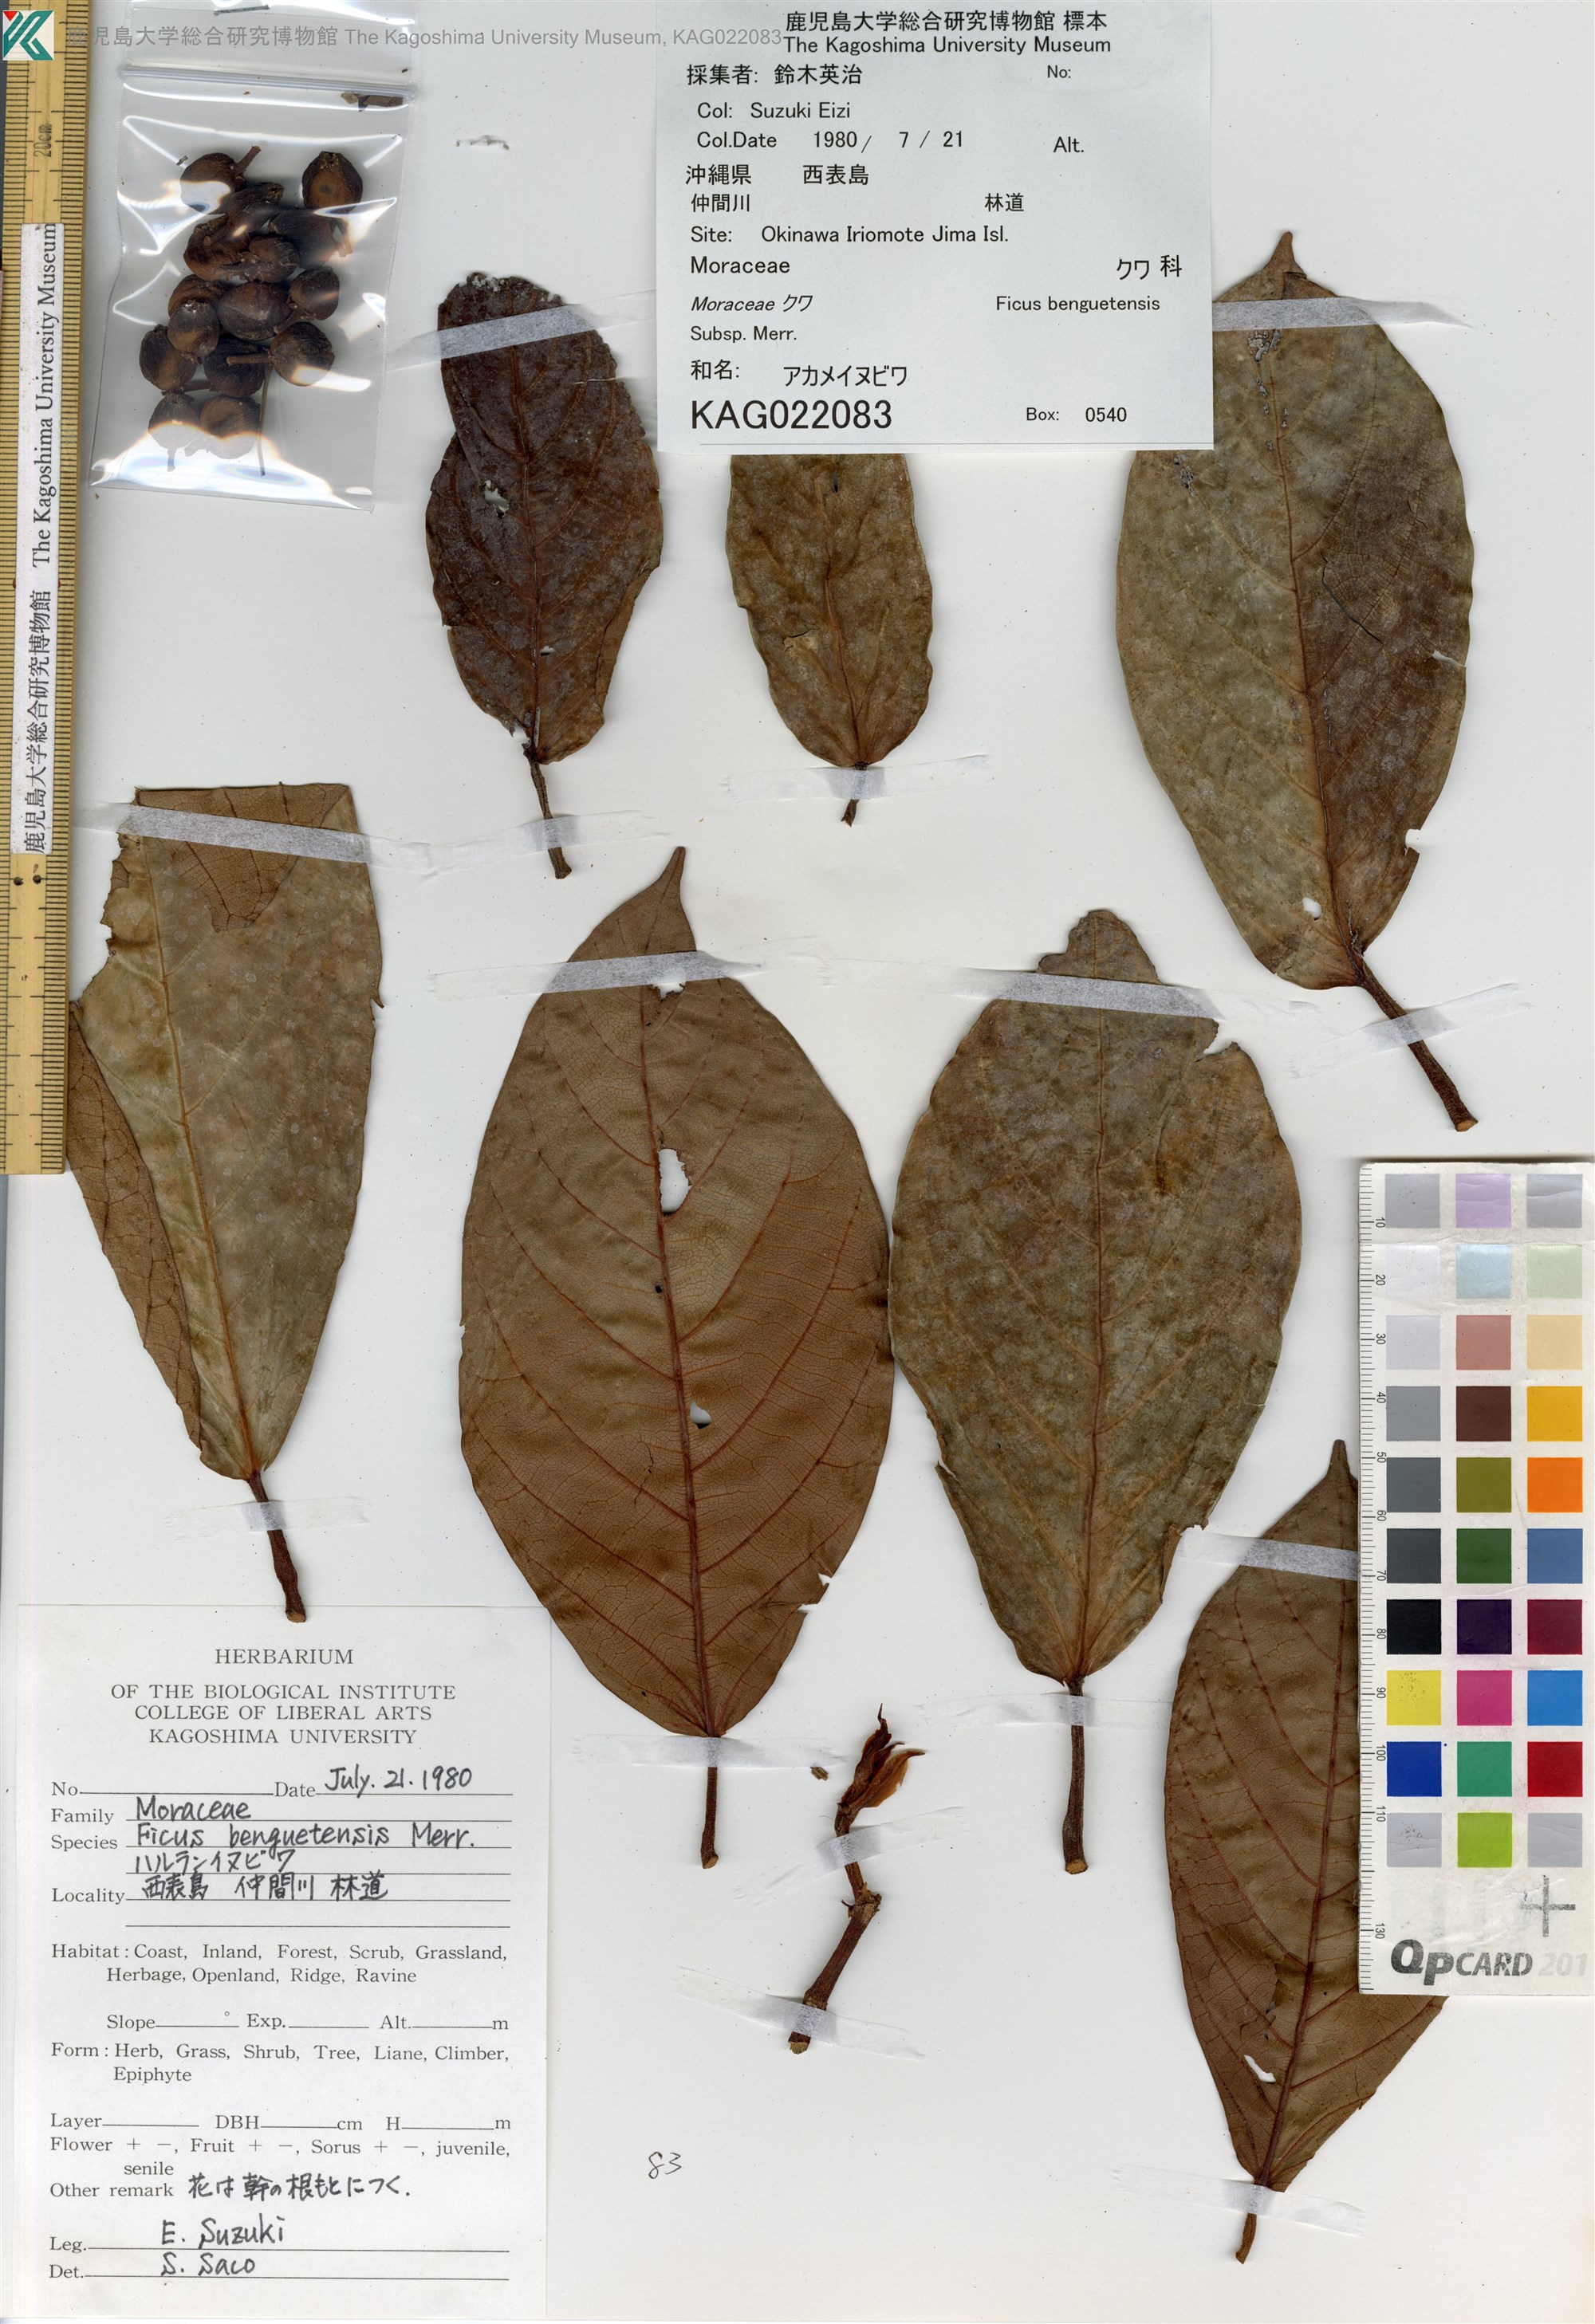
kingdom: Plantae
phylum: Tracheophyta
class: Magnoliopsida
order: Rosales
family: Moraceae
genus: Ficus
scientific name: Ficus benguetensis
